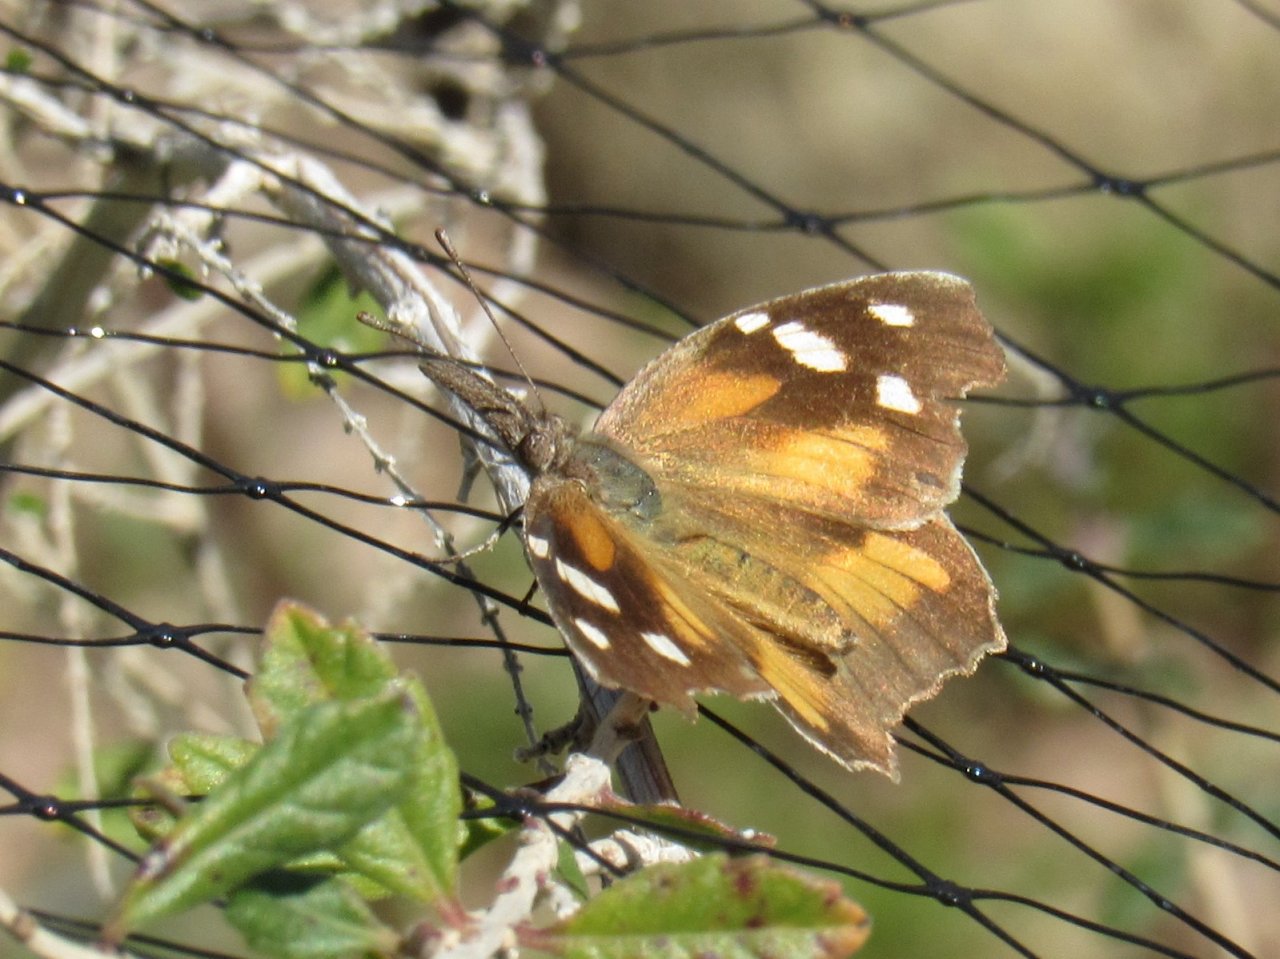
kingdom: Animalia
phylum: Arthropoda
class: Insecta
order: Lepidoptera
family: Nymphalidae
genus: Libytheana
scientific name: Libytheana carinenta
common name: American Snout
